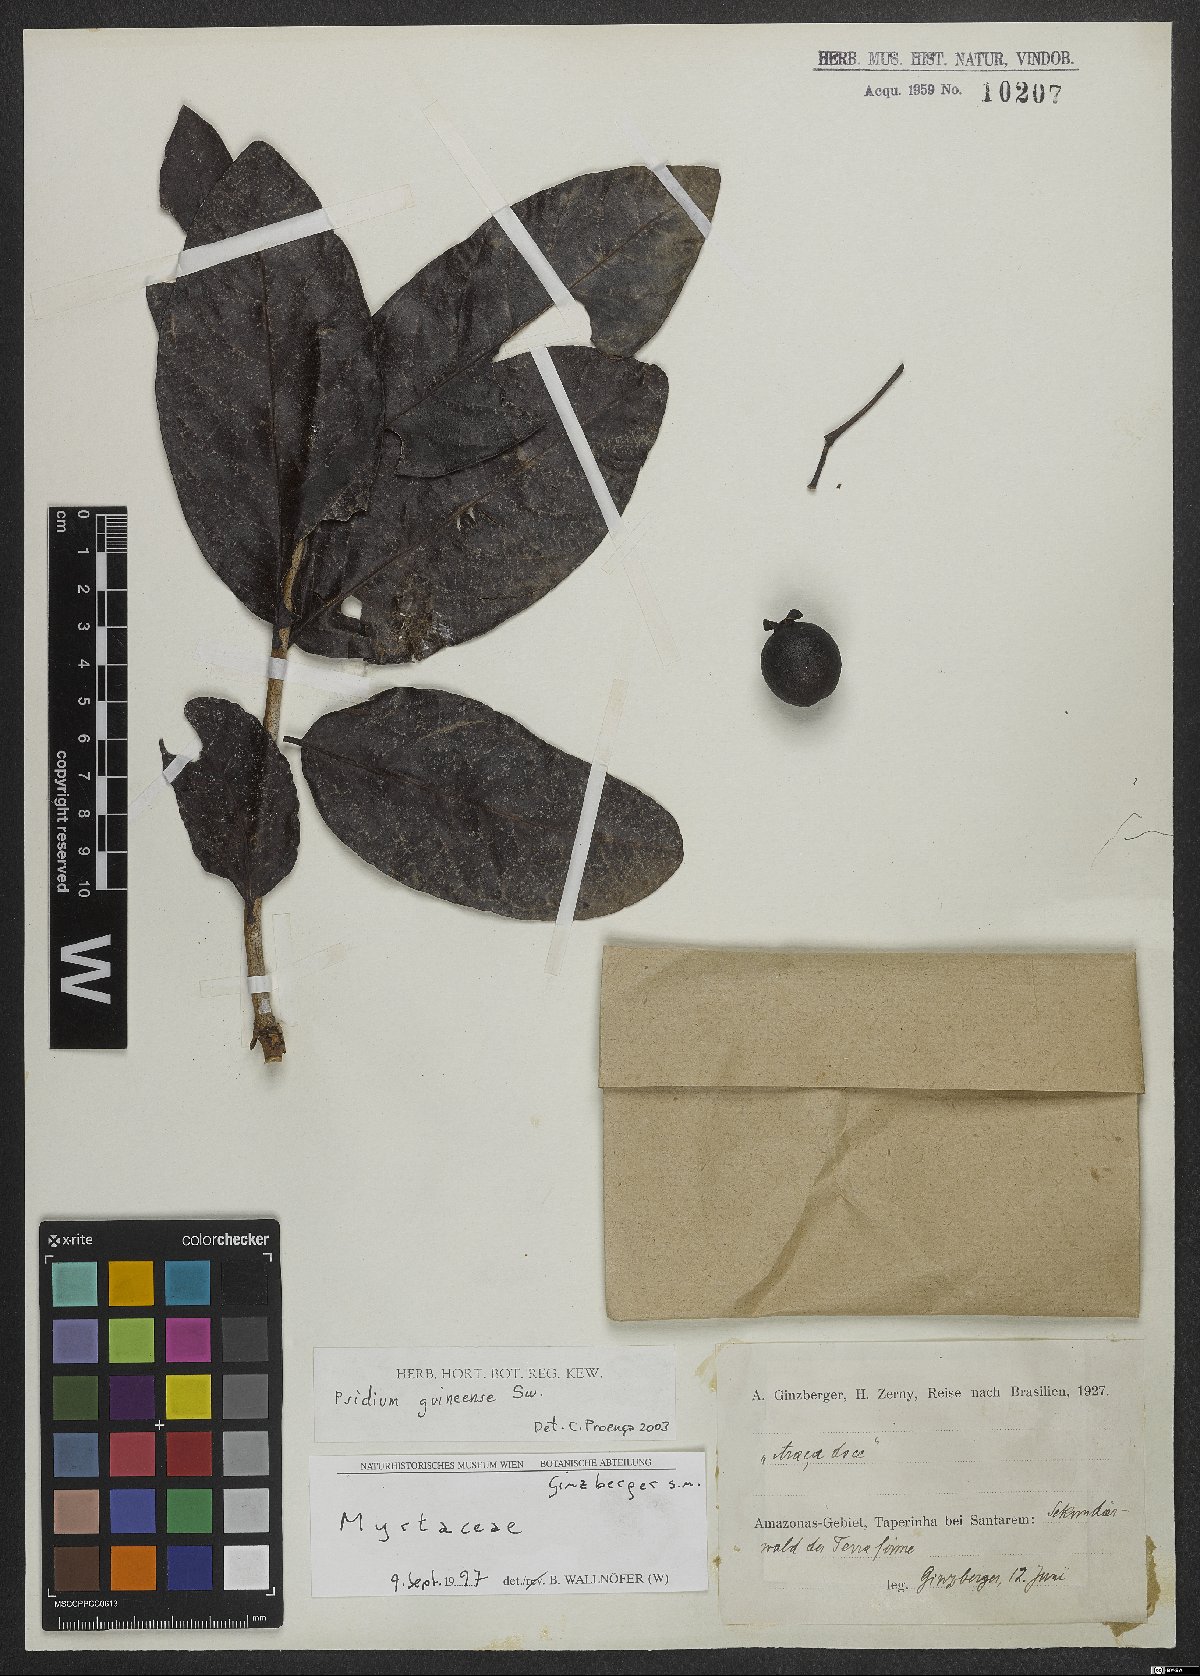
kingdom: Plantae
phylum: Tracheophyta
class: Magnoliopsida
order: Myrtales
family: Myrtaceae
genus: Psidium
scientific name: Psidium guineense
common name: Brazilian guava
